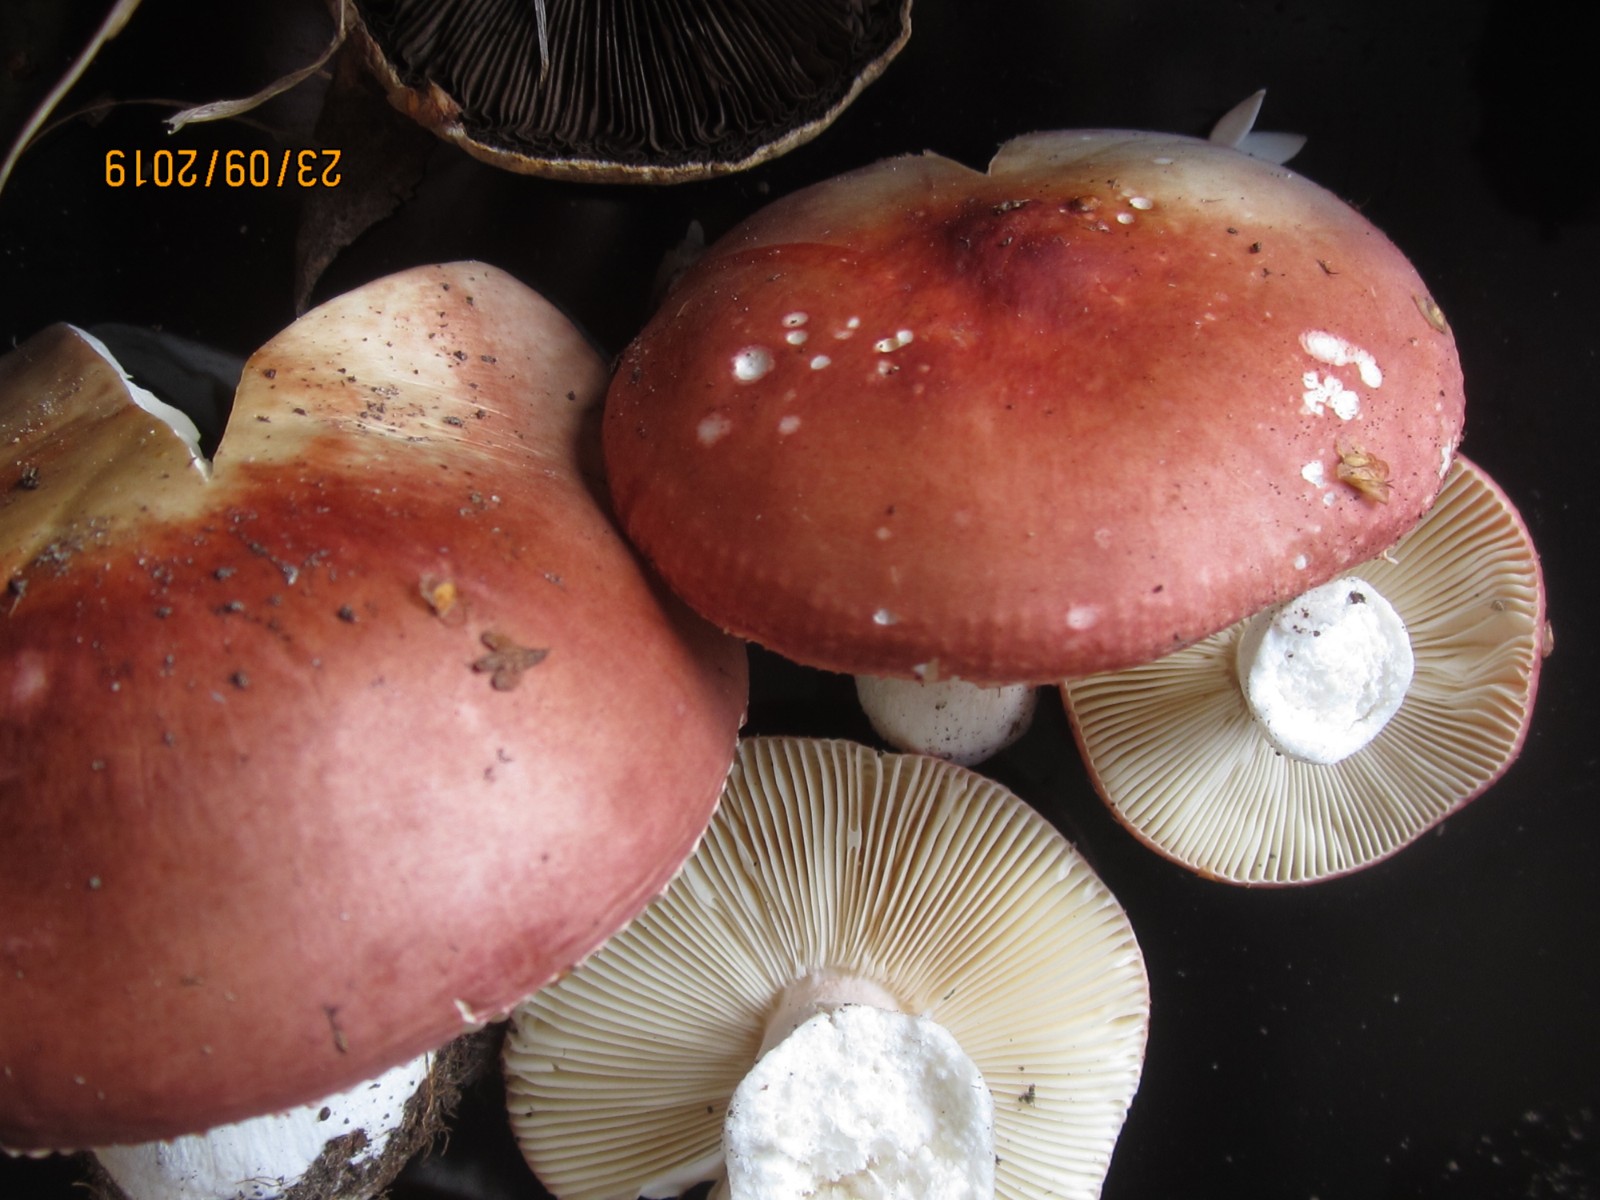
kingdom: Fungi
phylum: Basidiomycota
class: Agaricomycetes
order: Russulales
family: Russulaceae
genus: Russula
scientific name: Russula velenovskyi
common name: orangerød skørhat
